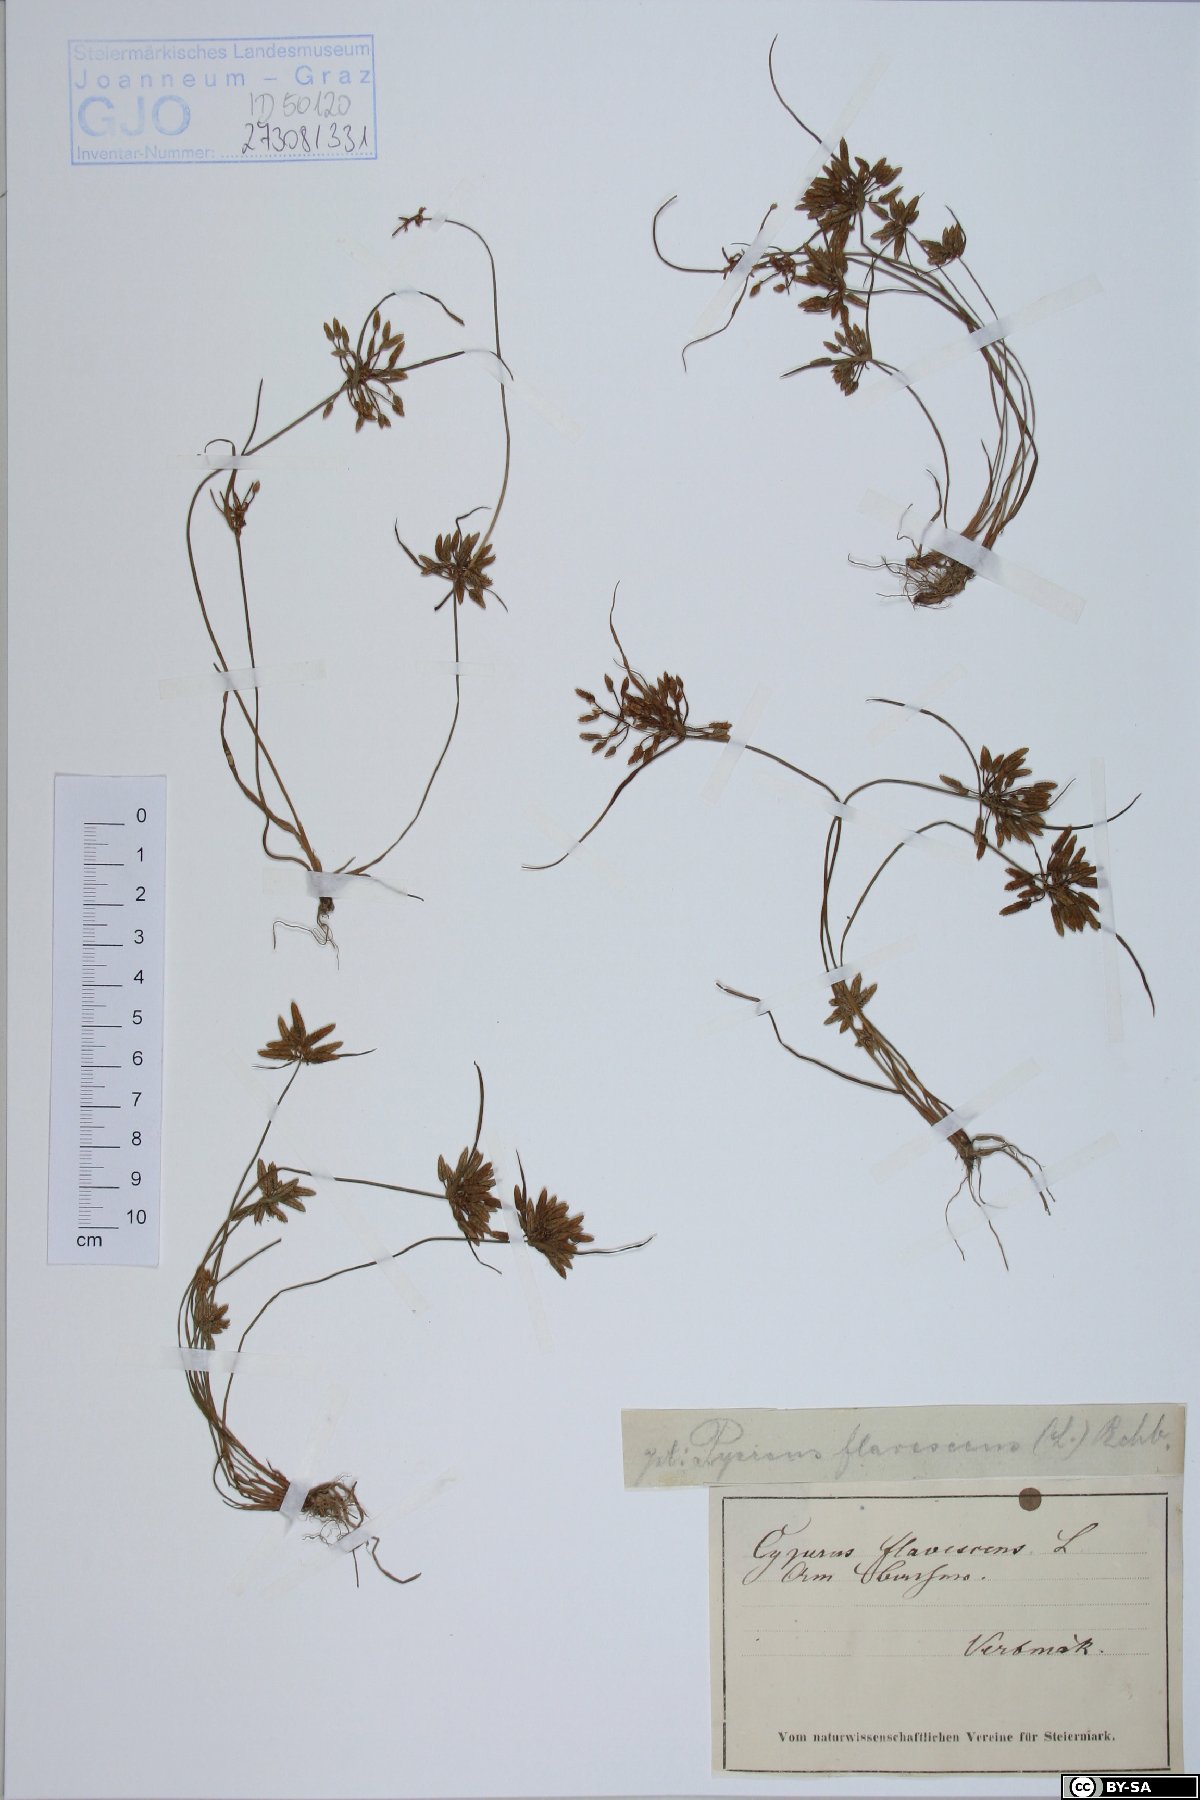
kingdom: Plantae
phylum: Tracheophyta
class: Liliopsida
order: Poales
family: Cyperaceae
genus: Cyperus
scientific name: Cyperus flavescens
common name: Yellow galingale
